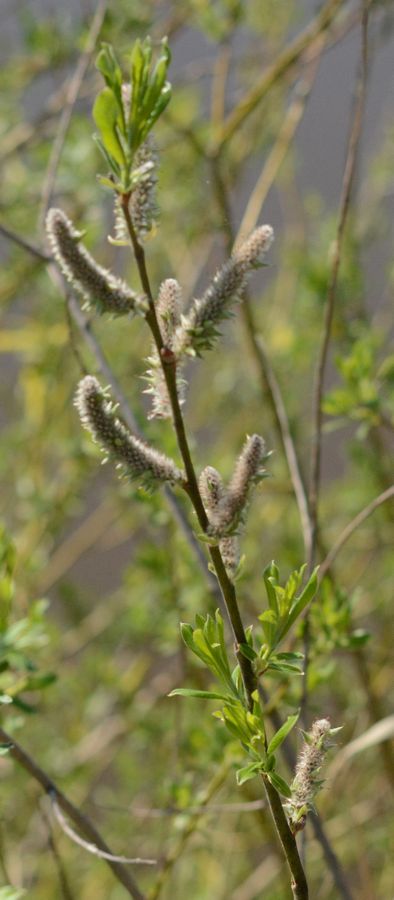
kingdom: Plantae
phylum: Tracheophyta
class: Magnoliopsida
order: Malpighiales
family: Salicaceae
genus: Salix
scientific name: Salix
